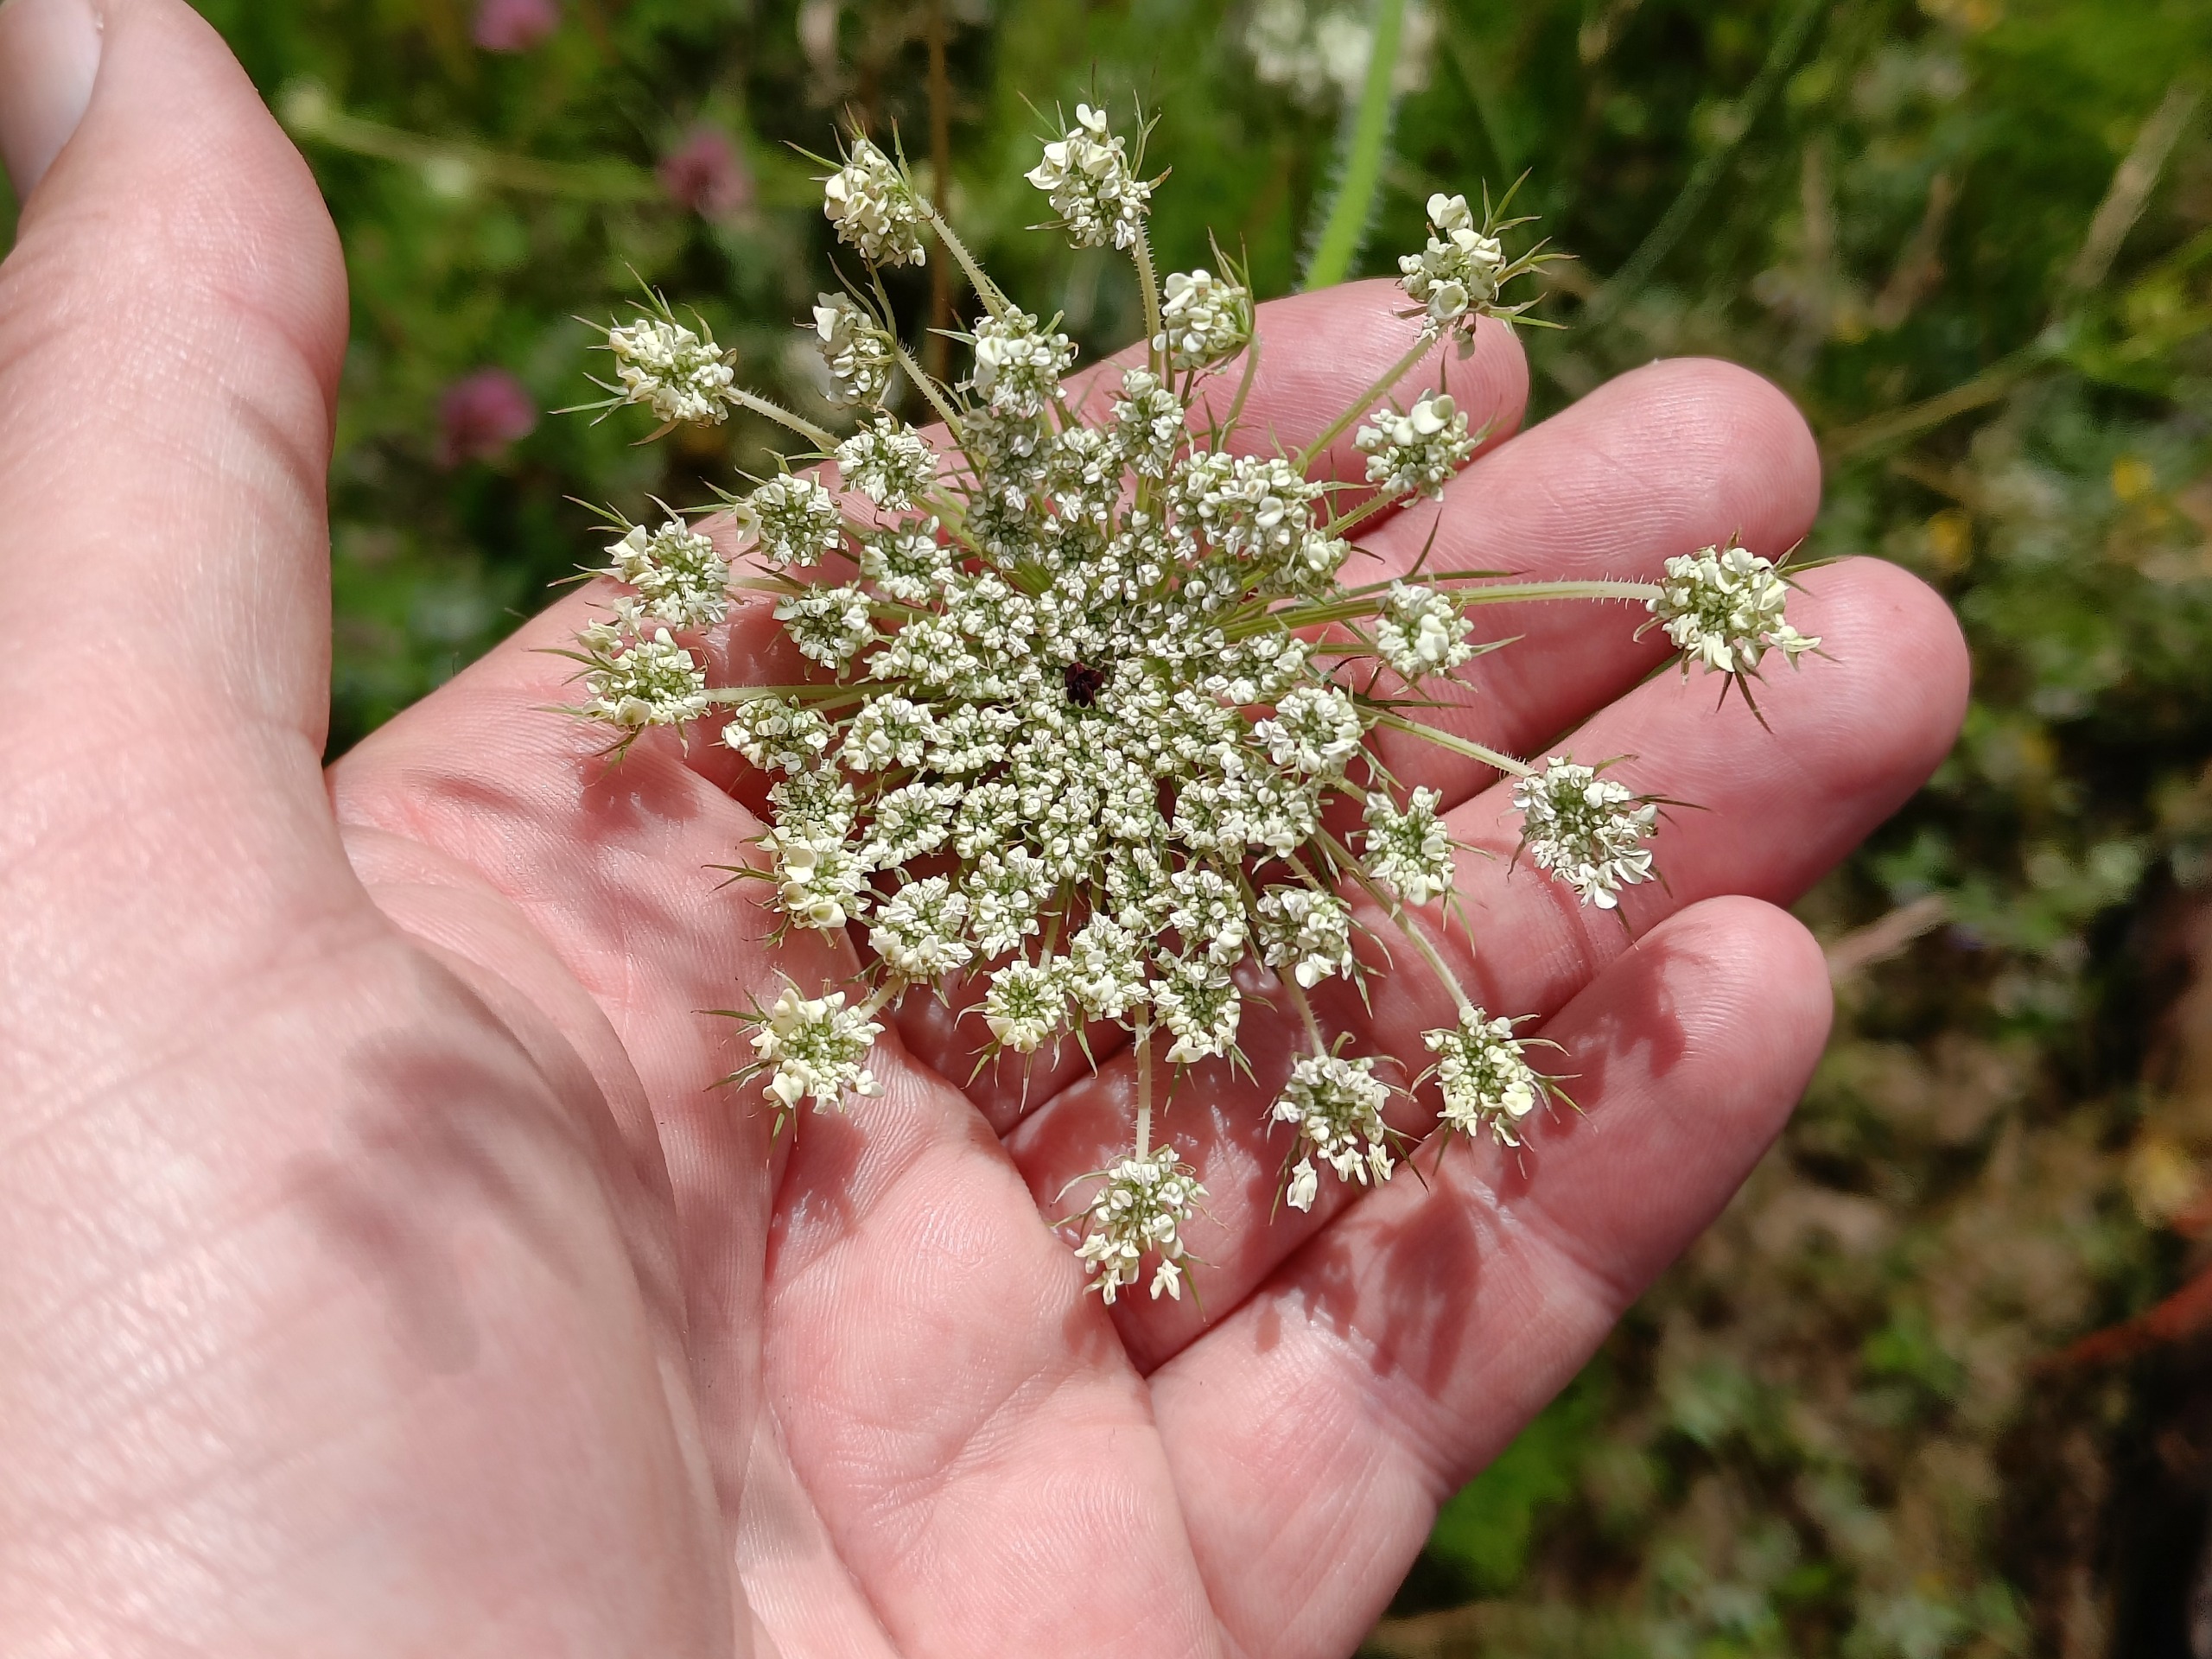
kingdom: Plantae
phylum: Tracheophyta
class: Magnoliopsida
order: Apiales
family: Apiaceae
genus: Daucus
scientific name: Daucus carota
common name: Vild gulerod
